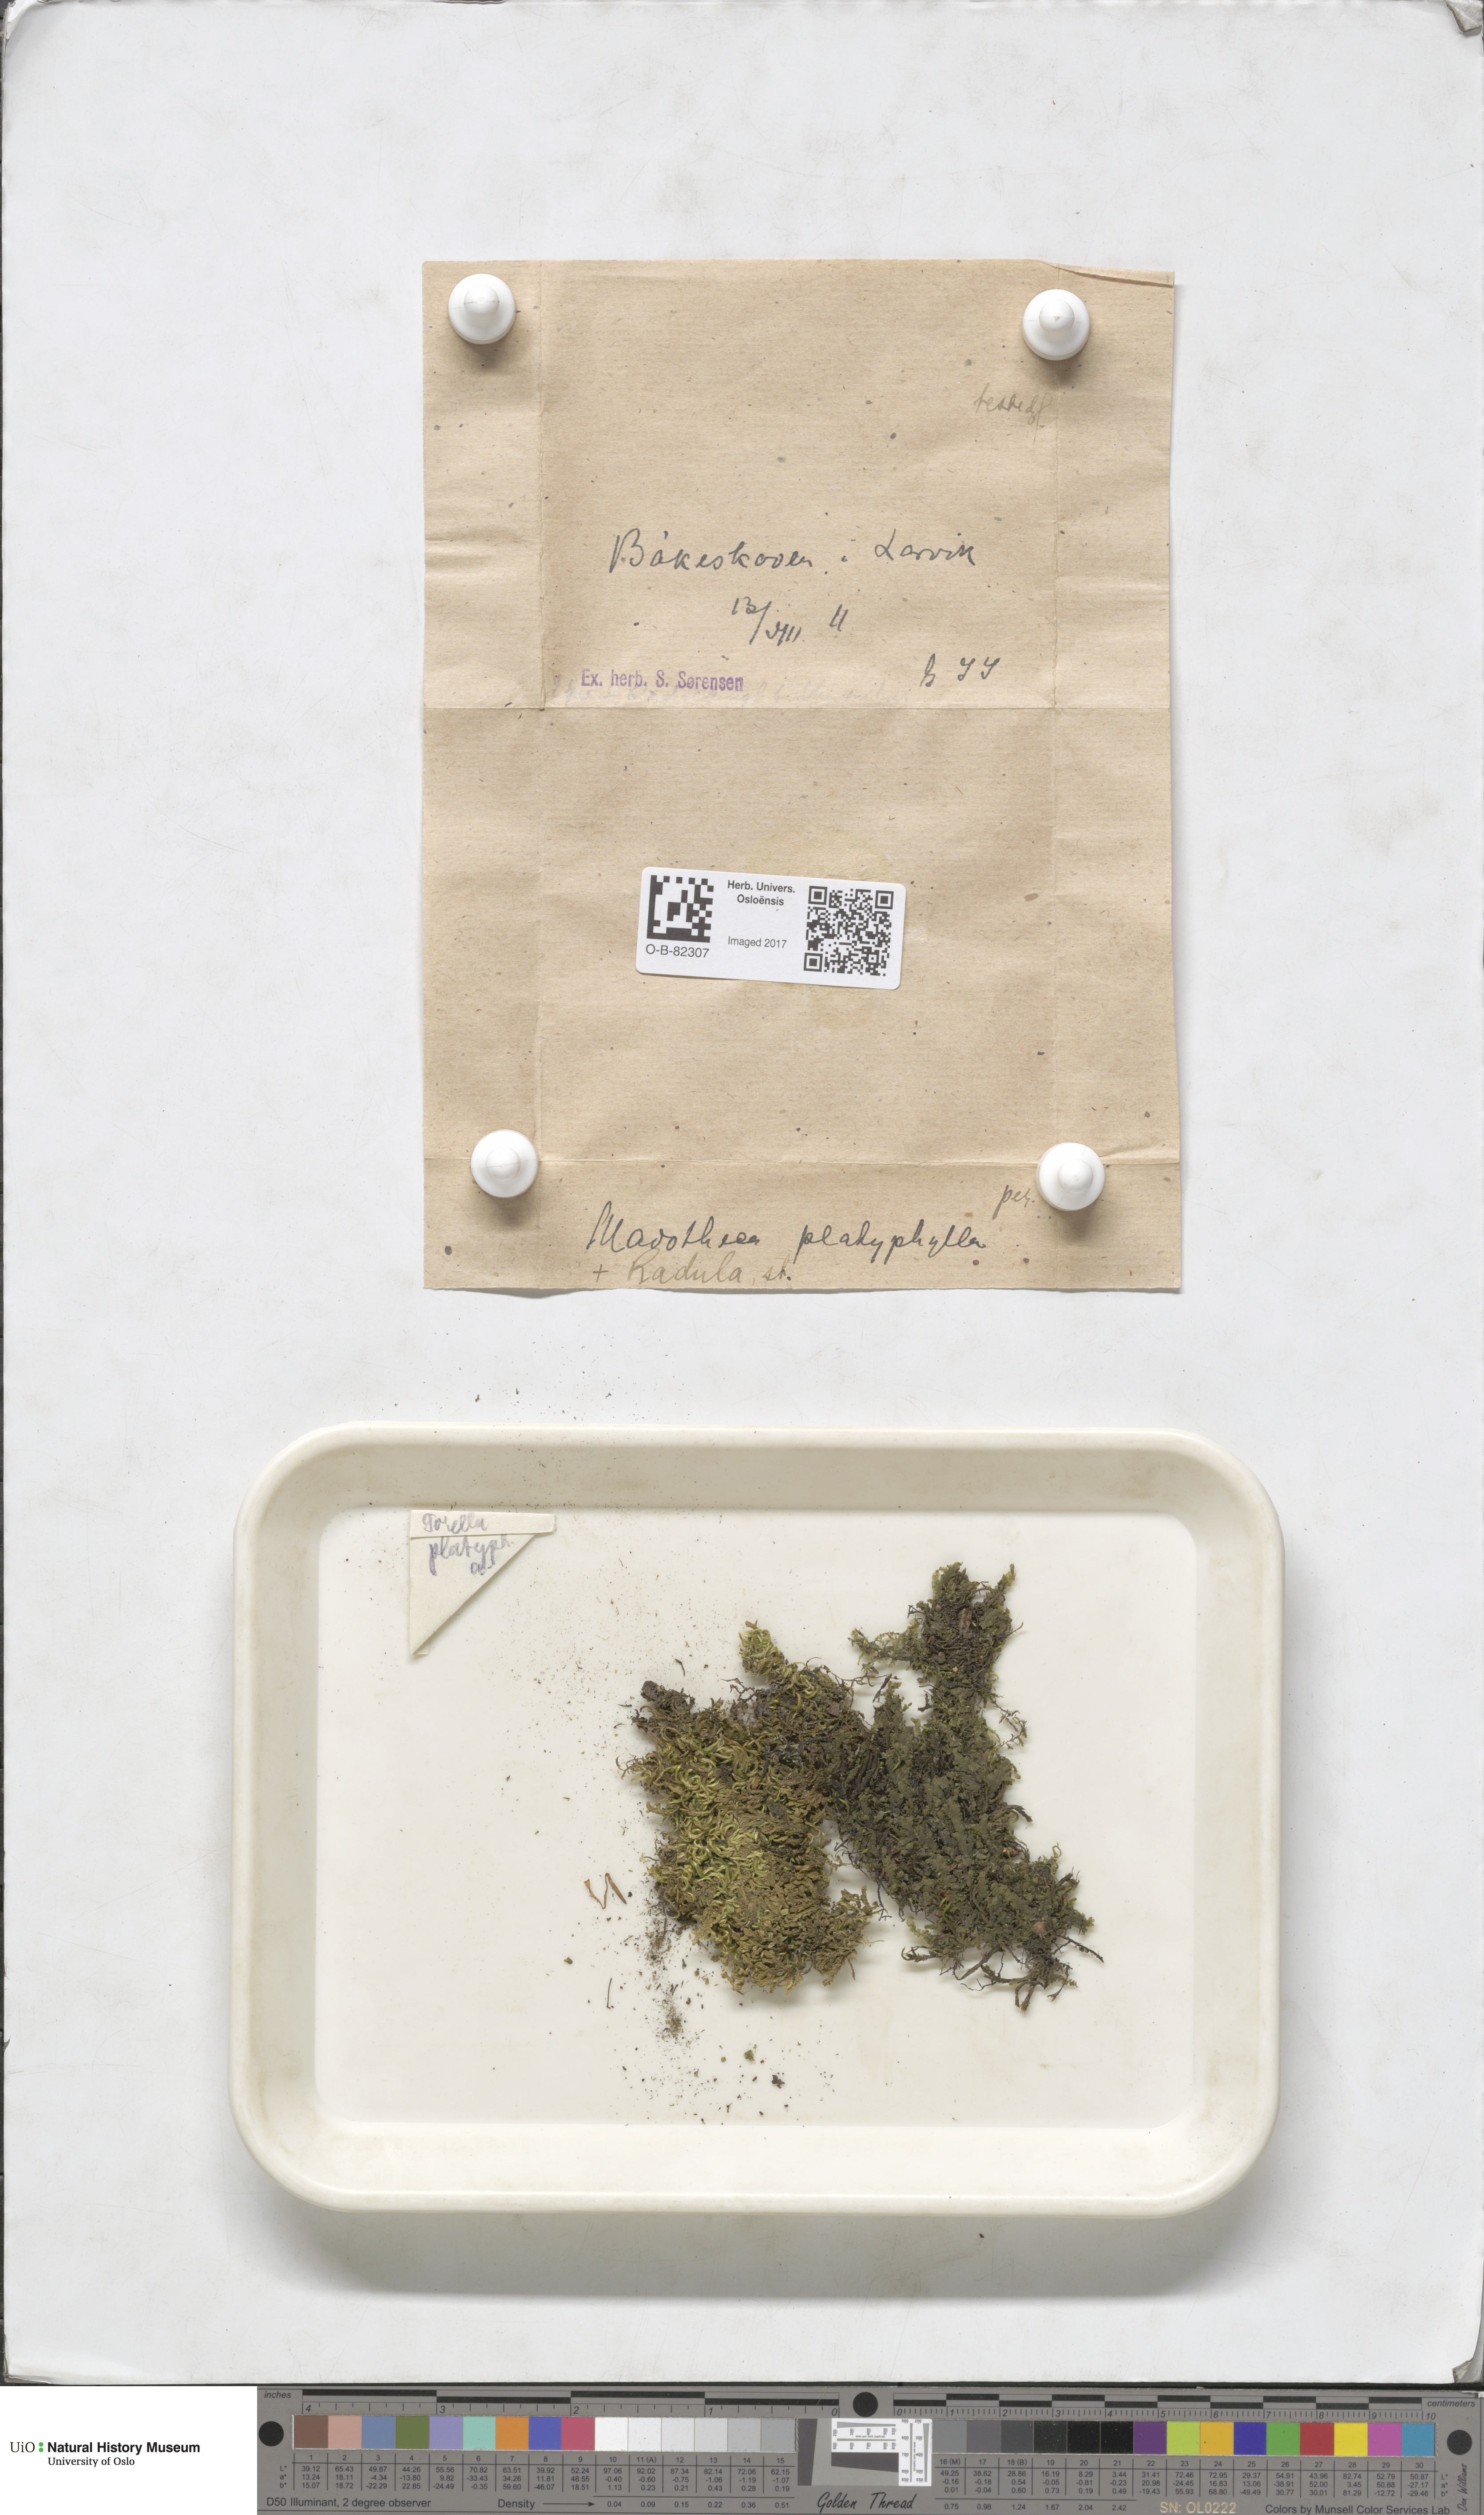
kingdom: Plantae
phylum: Marchantiophyta
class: Jungermanniopsida
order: Porellales
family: Porellaceae
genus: Porella
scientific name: Porella platyphylla
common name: Wall scalewort
